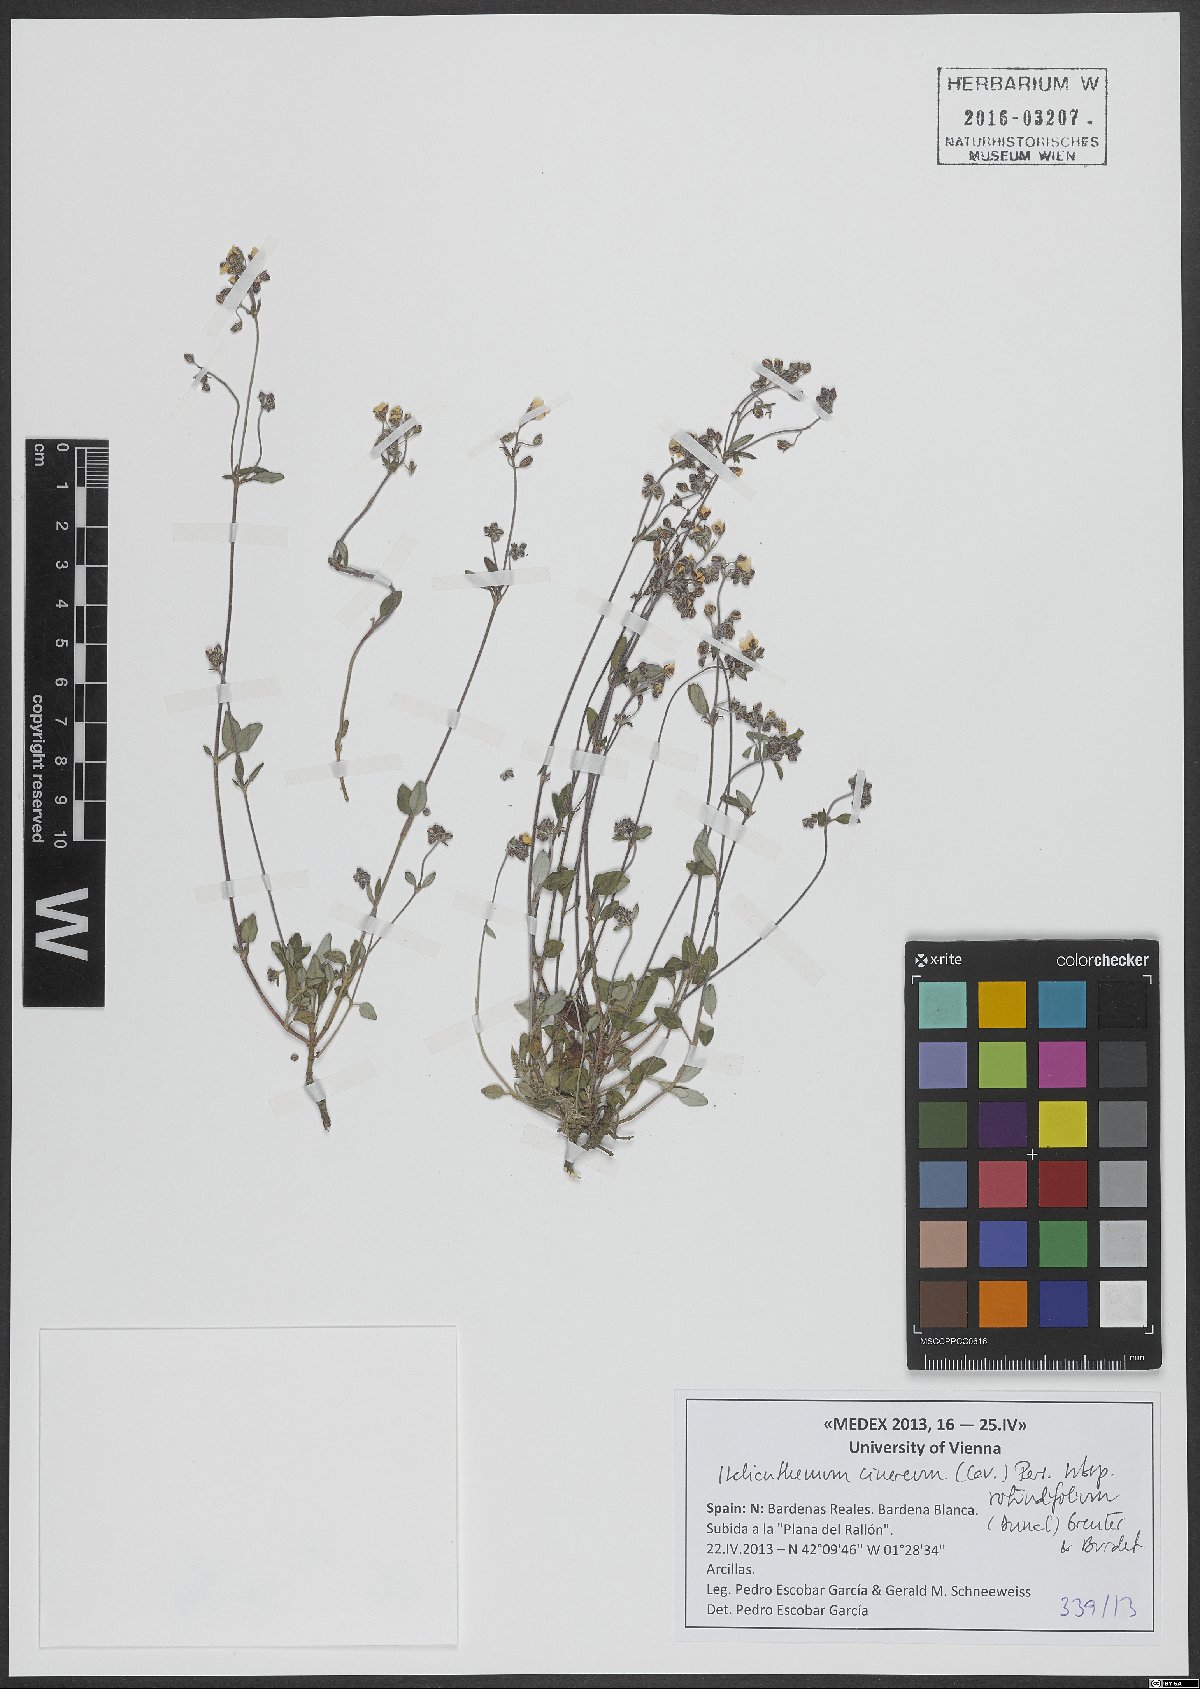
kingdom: Plantae
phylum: Tracheophyta
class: Magnoliopsida
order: Malvales
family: Cistaceae
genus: Helianthemum
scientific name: Helianthemum cinereum
